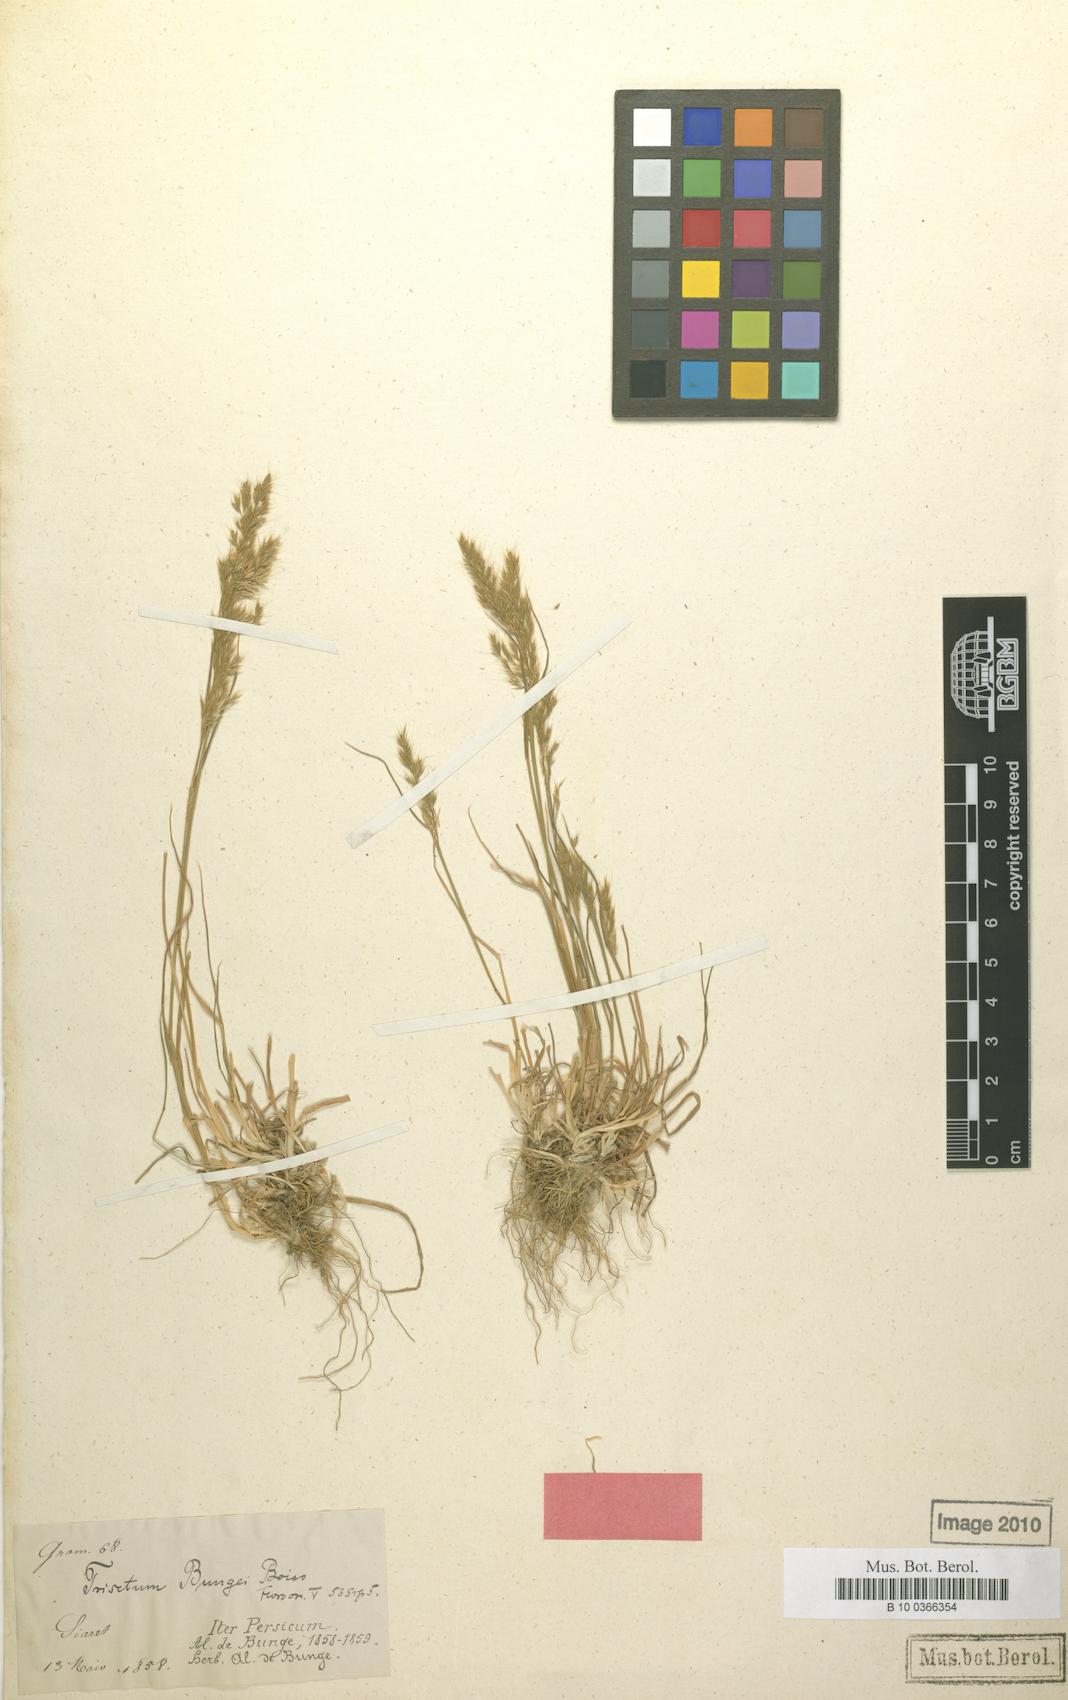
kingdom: Plantae
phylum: Tracheophyta
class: Liliopsida
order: Poales
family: Poaceae
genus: Trisetum
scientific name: Trisetum flavescens
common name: Yellow oat-grass
